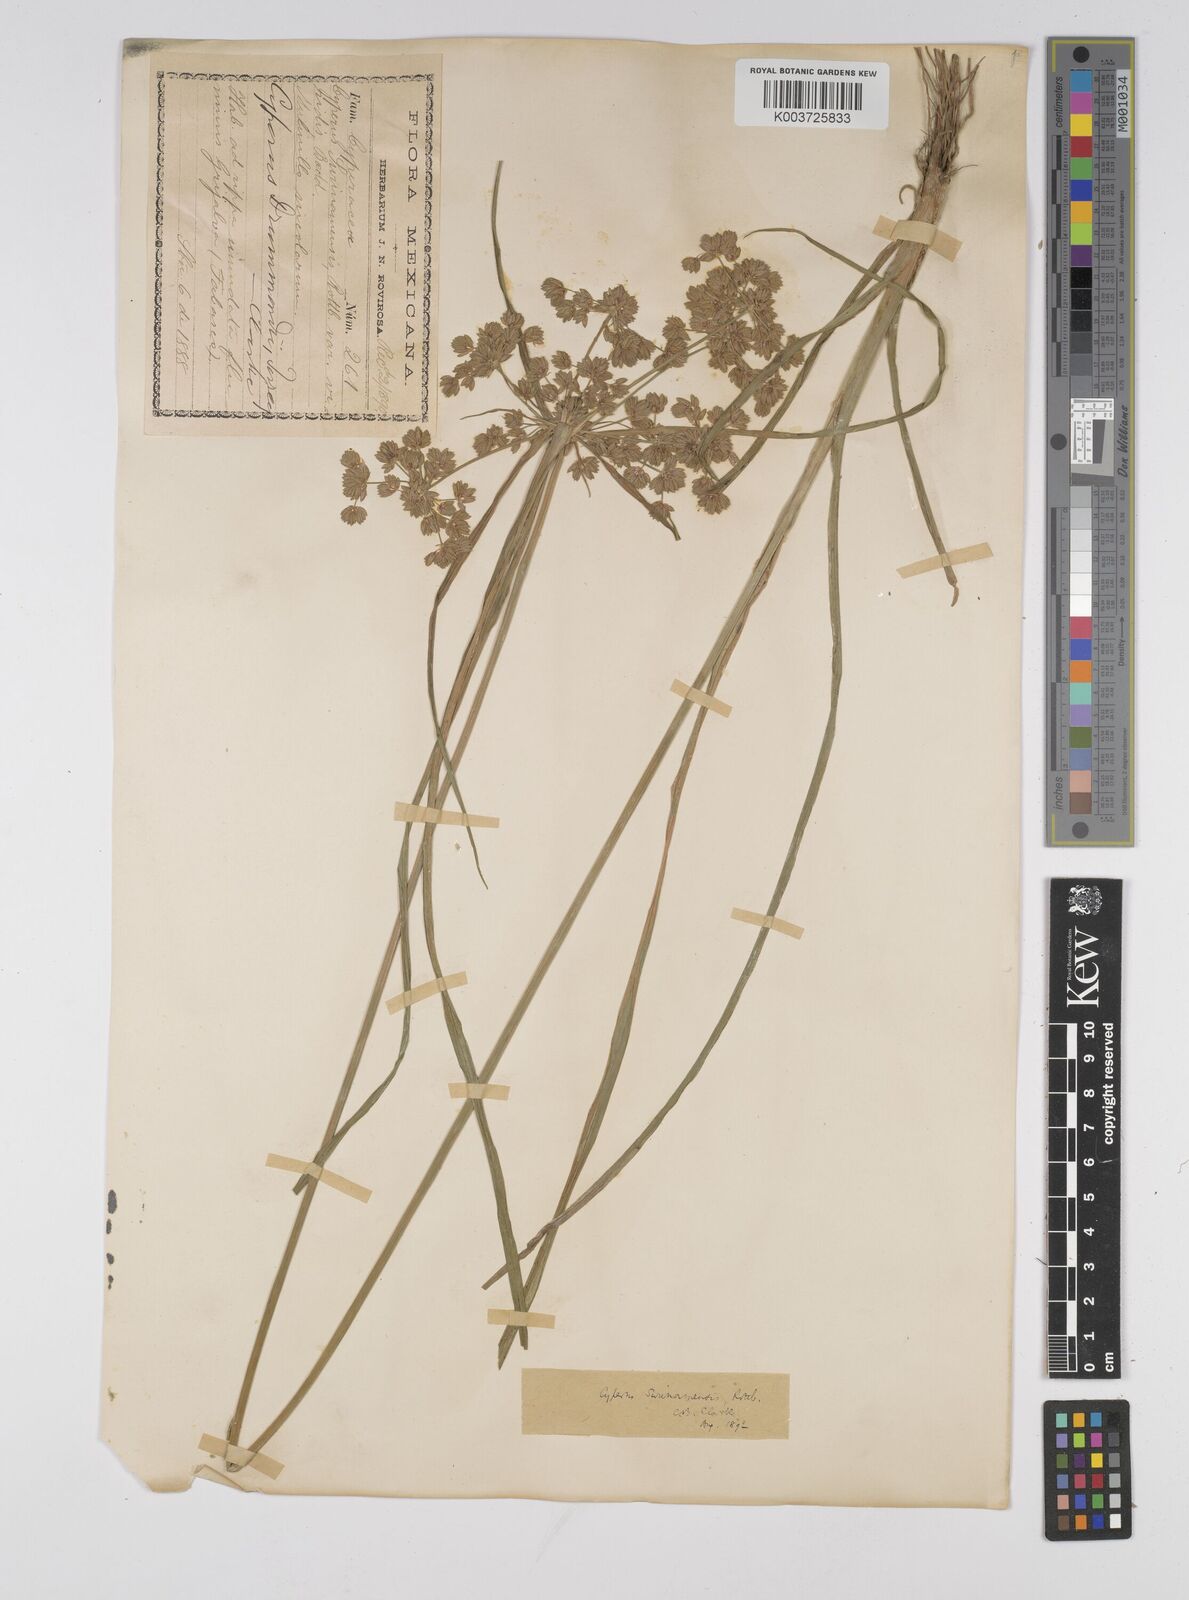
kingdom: Plantae
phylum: Tracheophyta
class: Liliopsida
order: Poales
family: Cyperaceae
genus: Cyperus
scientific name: Cyperus surinamensis
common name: Tropical flat sedge
